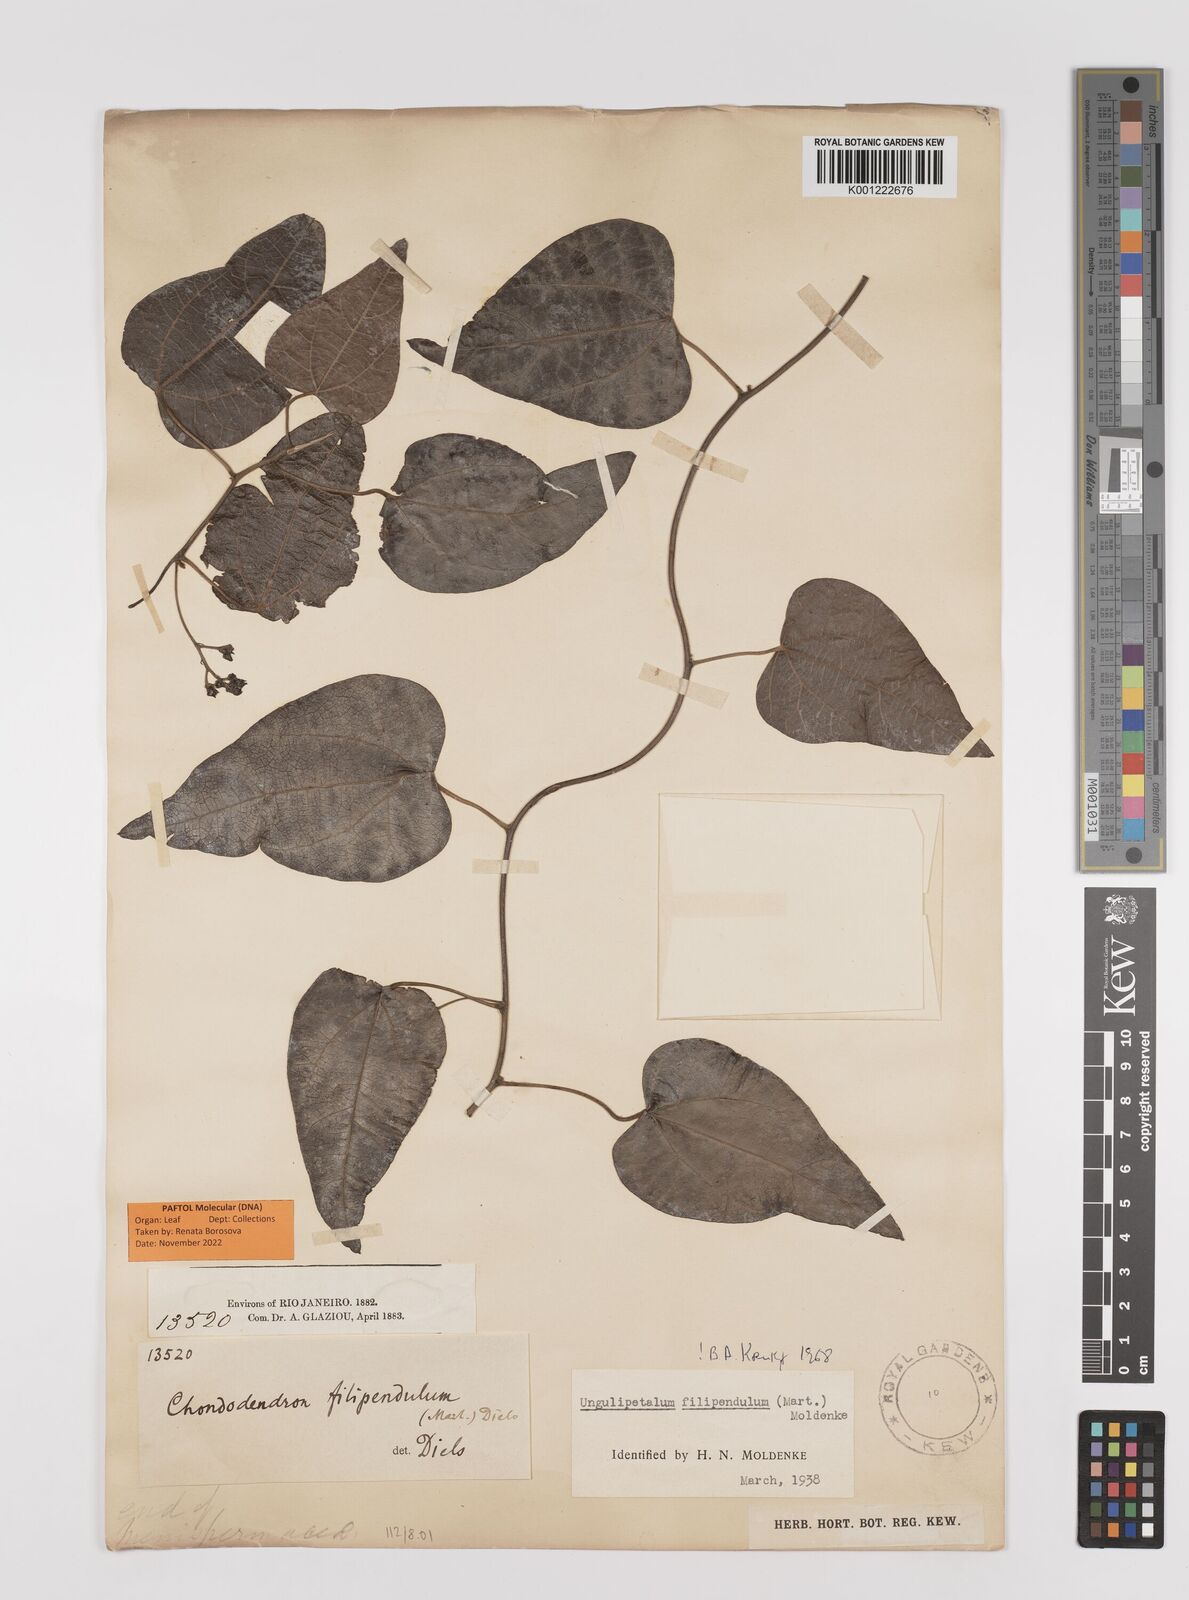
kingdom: Plantae
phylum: Tracheophyta
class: Magnoliopsida
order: Ranunculales
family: Menispermaceae
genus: Ungulipetalum
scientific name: Ungulipetalum filipendulum
